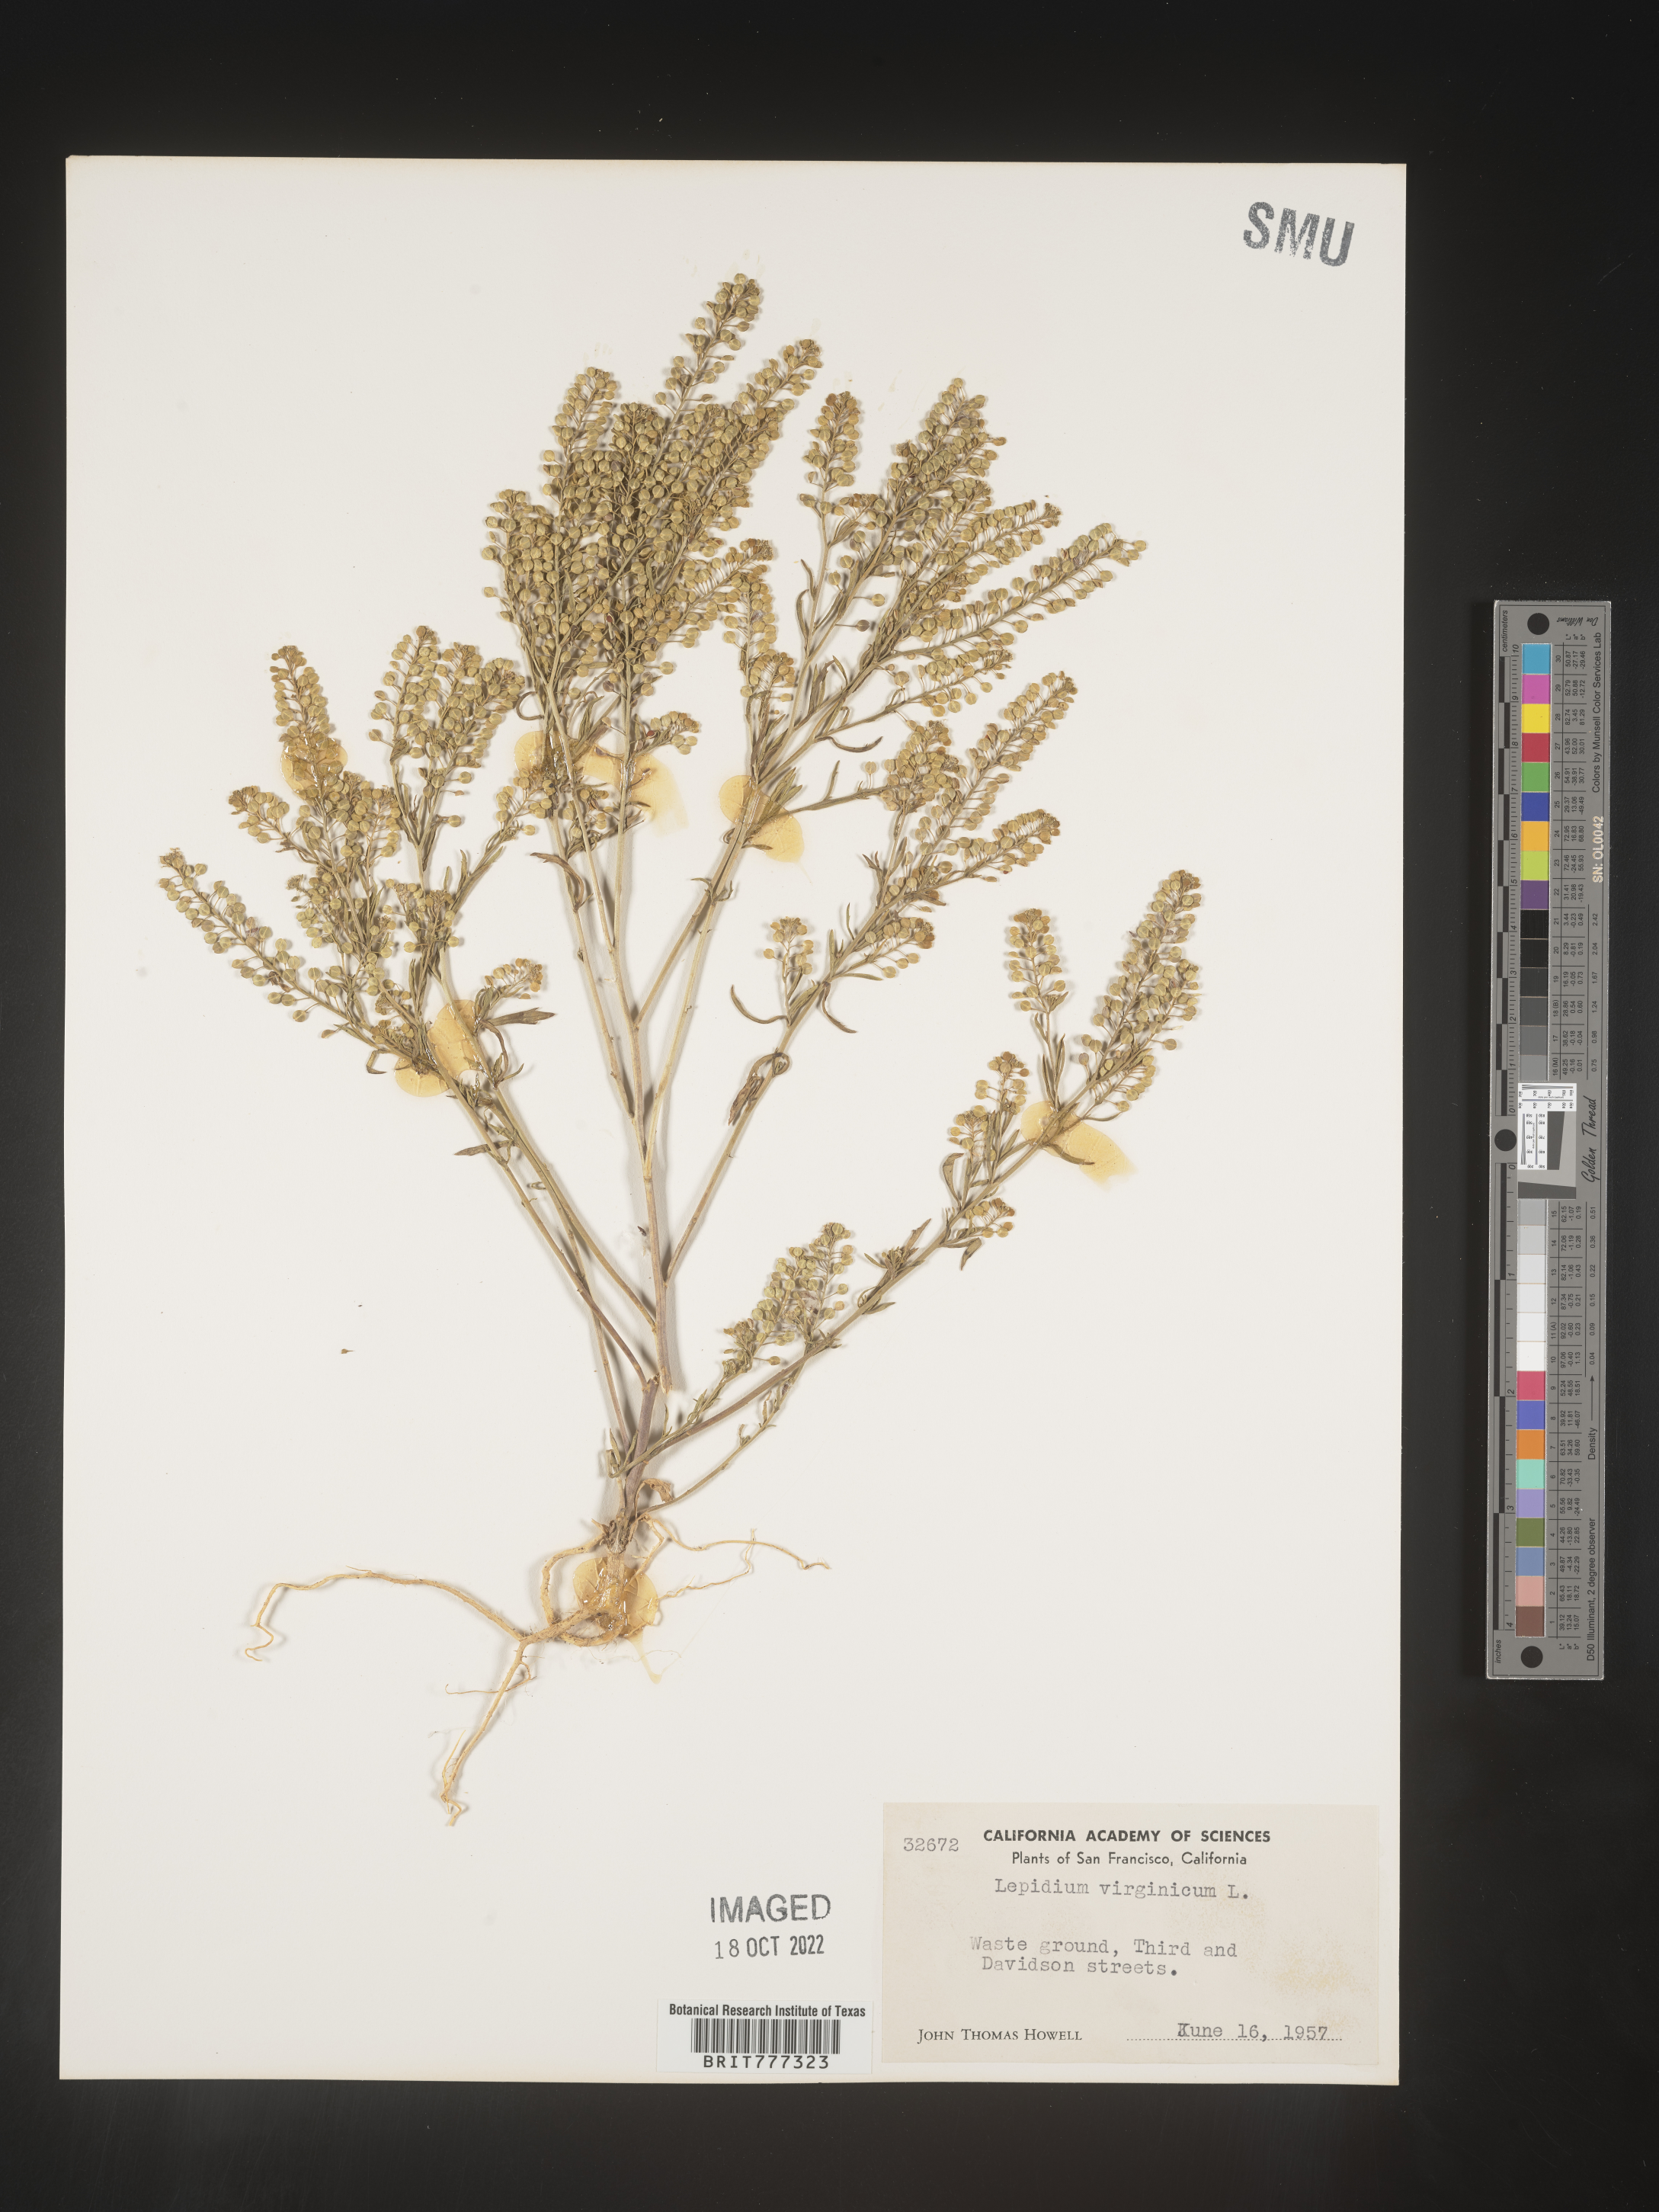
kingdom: Plantae
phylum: Tracheophyta
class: Magnoliopsida
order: Brassicales
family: Brassicaceae
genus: Lepidium
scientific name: Lepidium virginicum
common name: Least pepperwort
